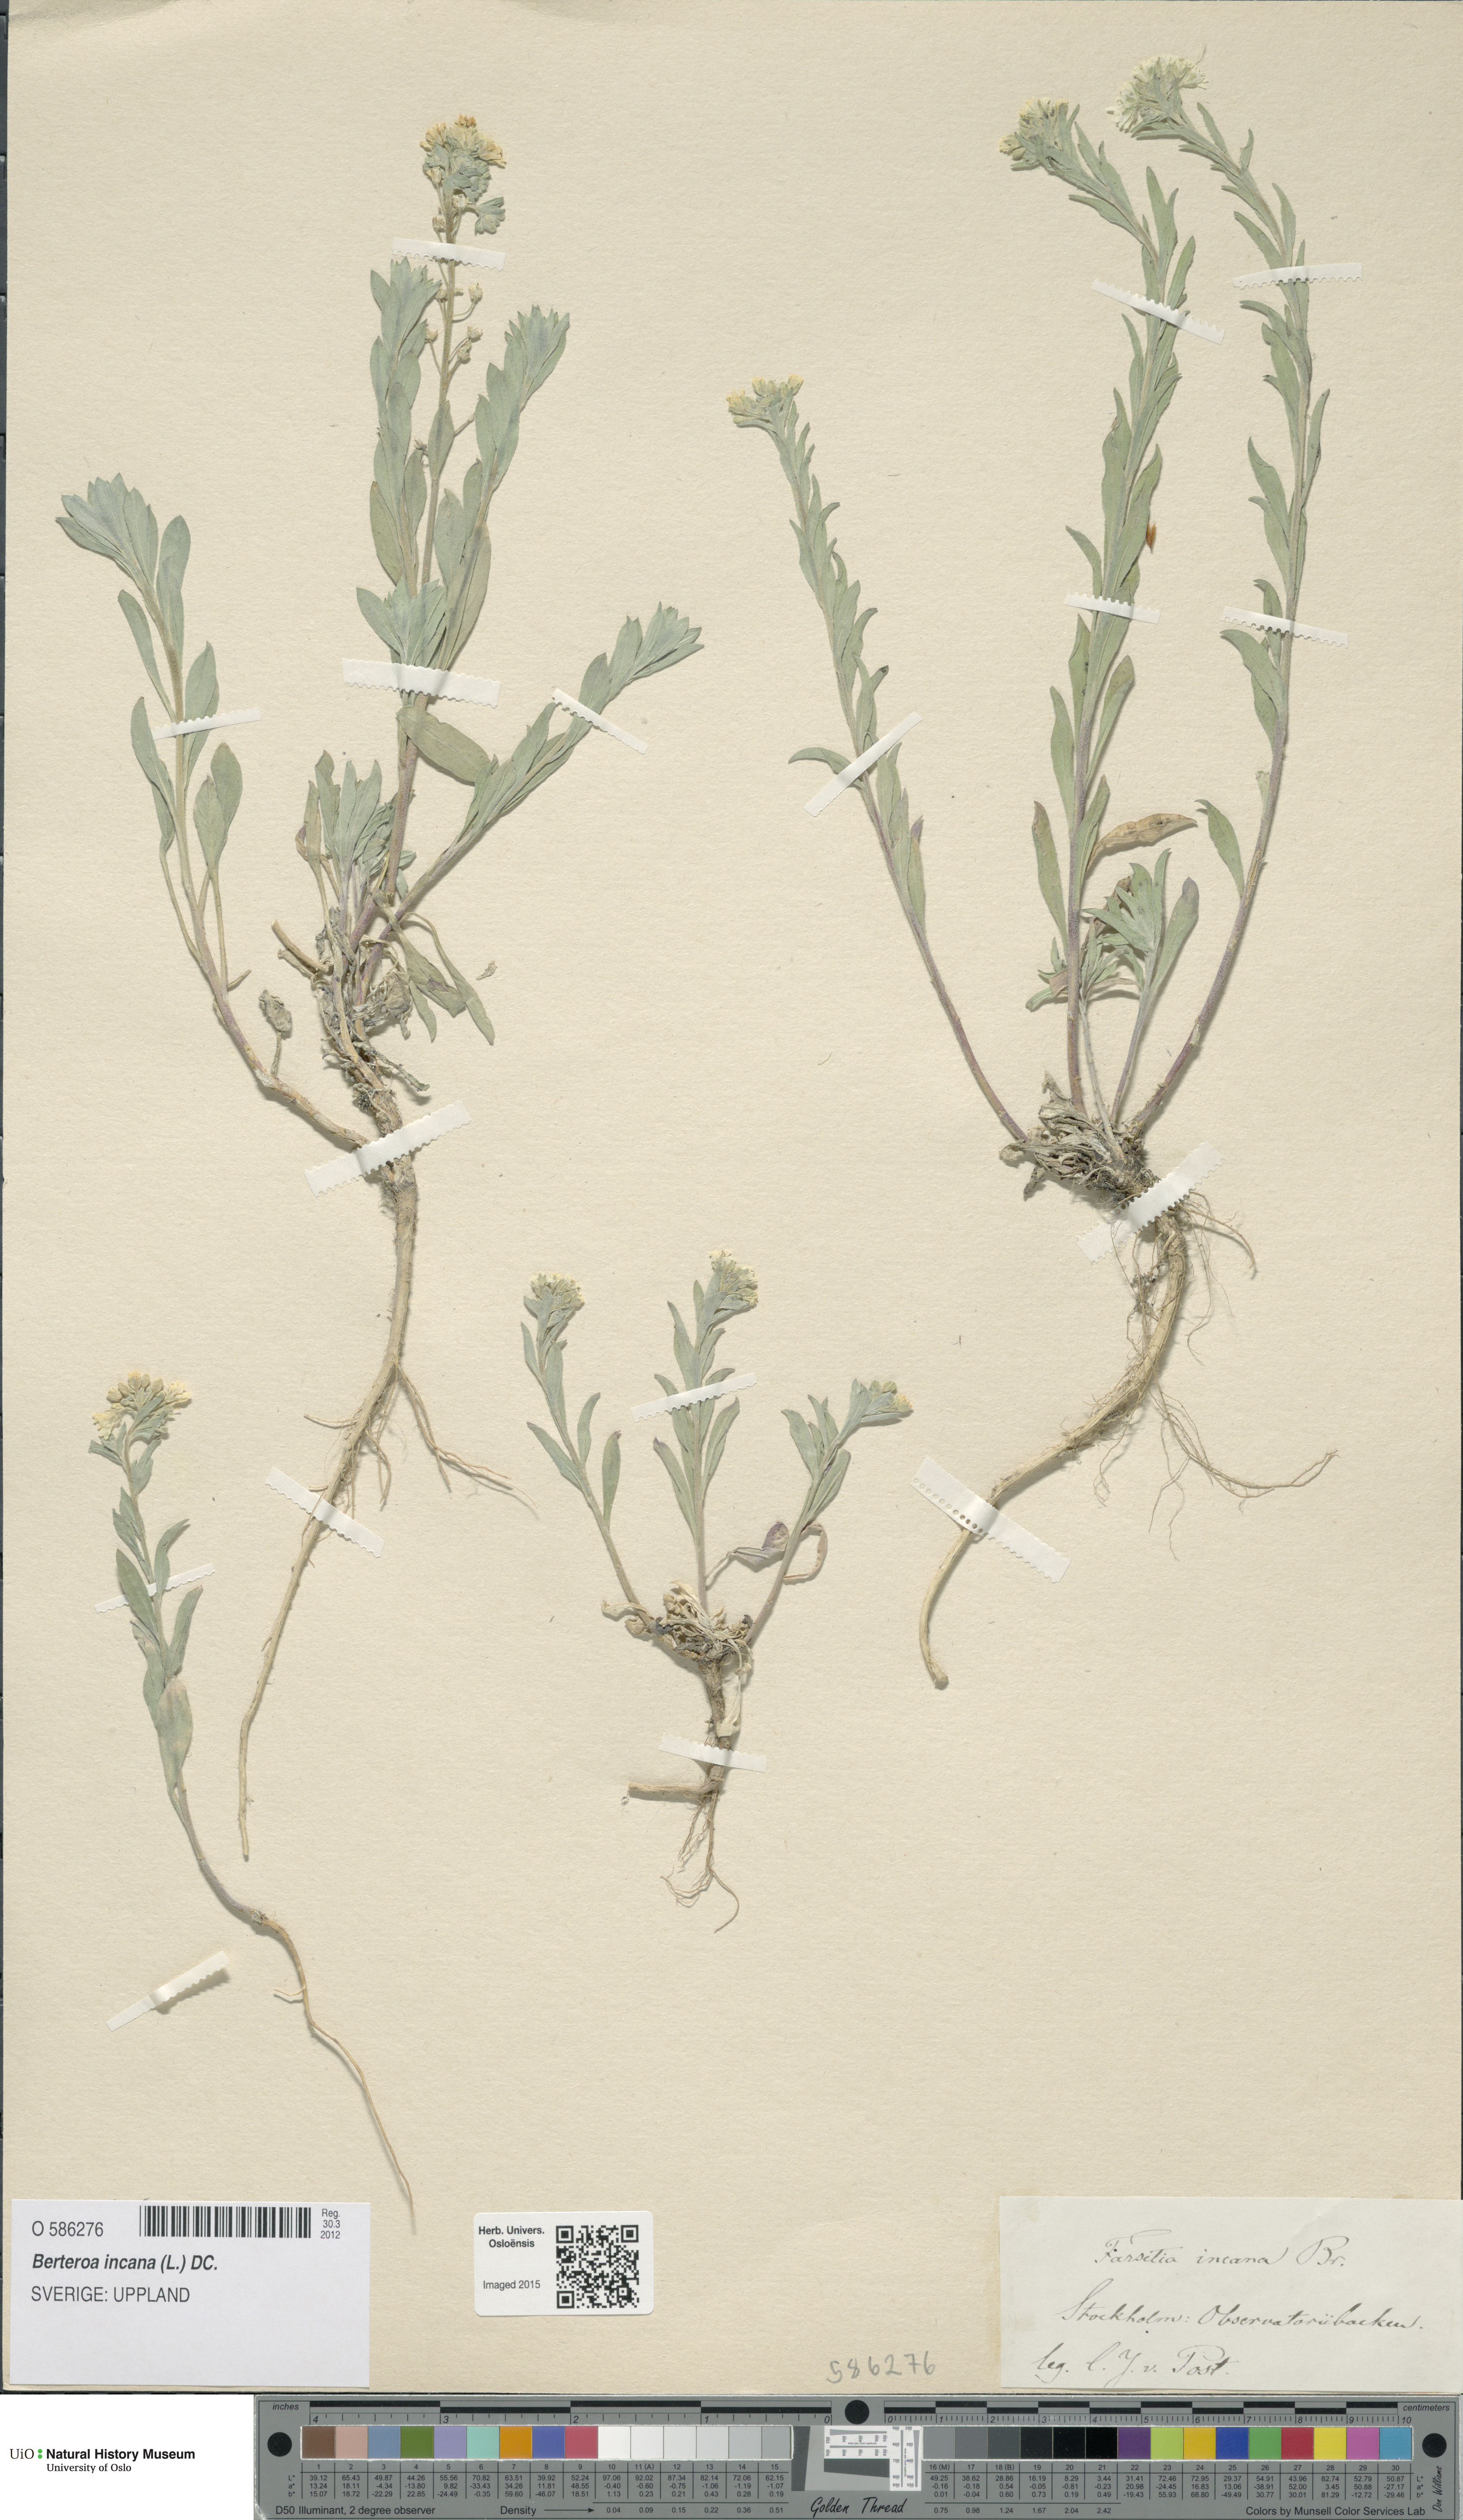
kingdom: Plantae
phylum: Tracheophyta
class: Magnoliopsida
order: Brassicales
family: Brassicaceae
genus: Berteroa
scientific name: Berteroa incana
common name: Hoary alison
